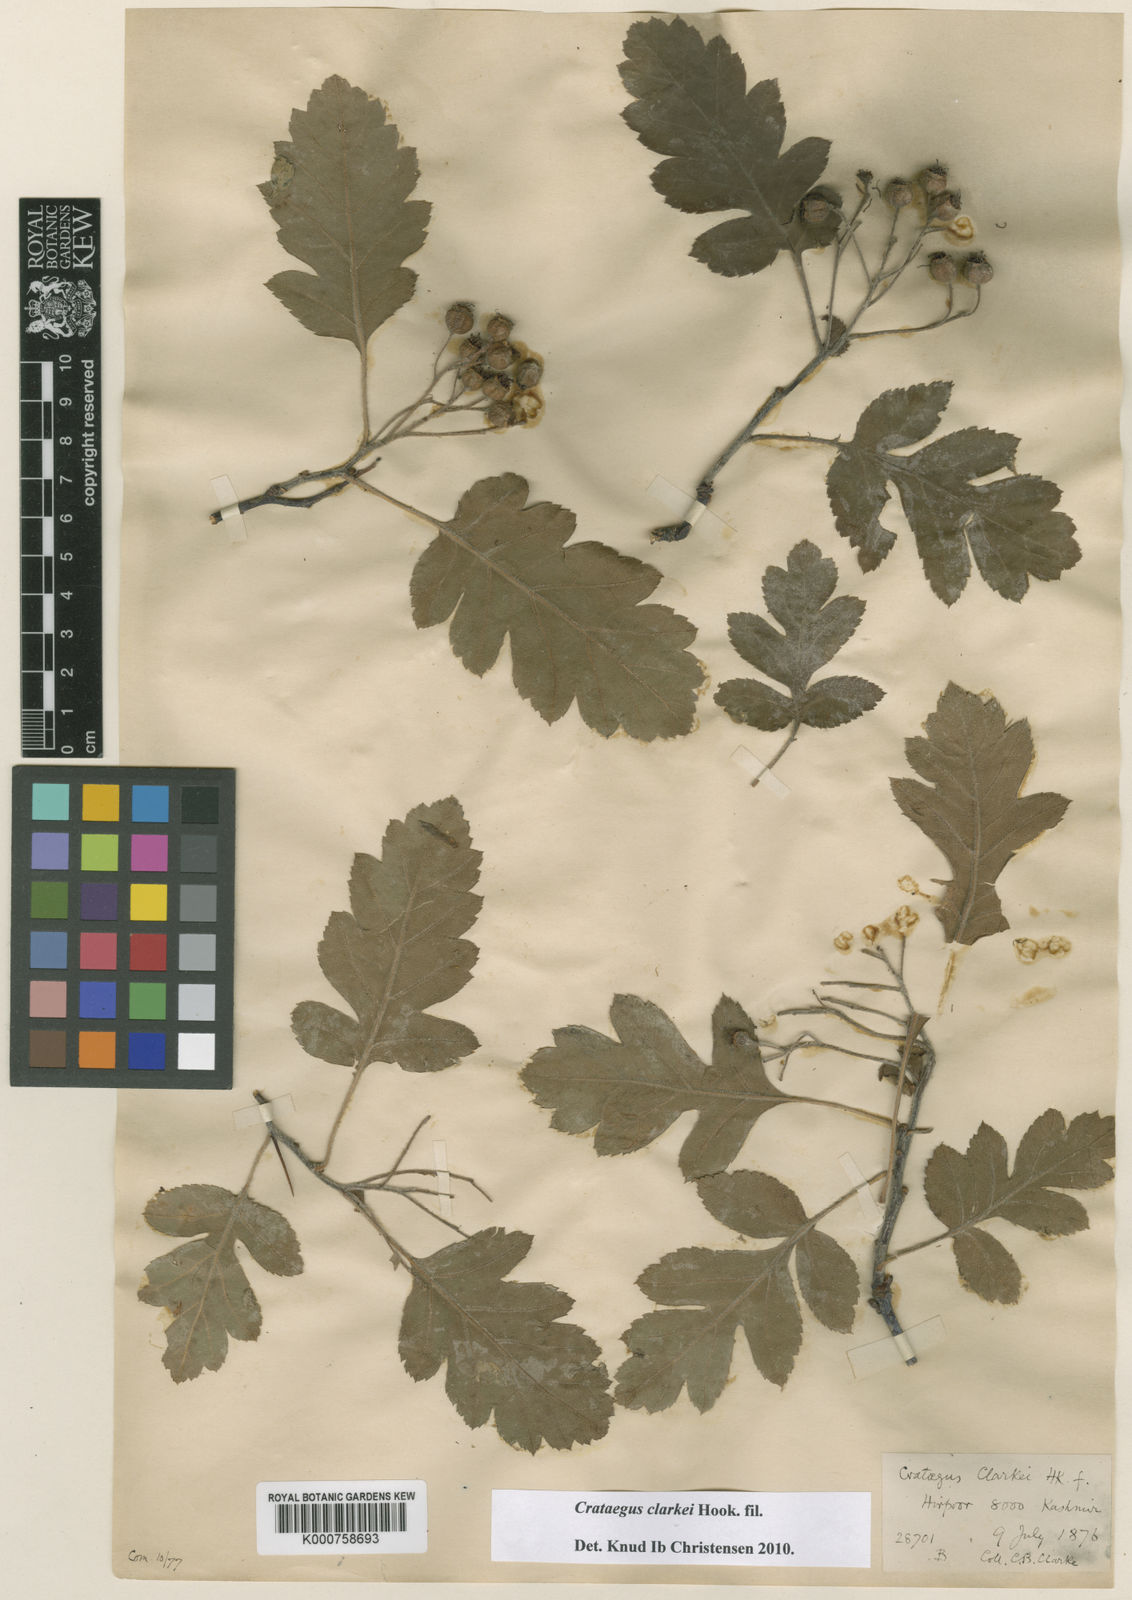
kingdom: Plantae
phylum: Tracheophyta
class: Magnoliopsida
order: Rosales
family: Rosaceae
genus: Crataegus
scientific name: Crataegus clarkei
